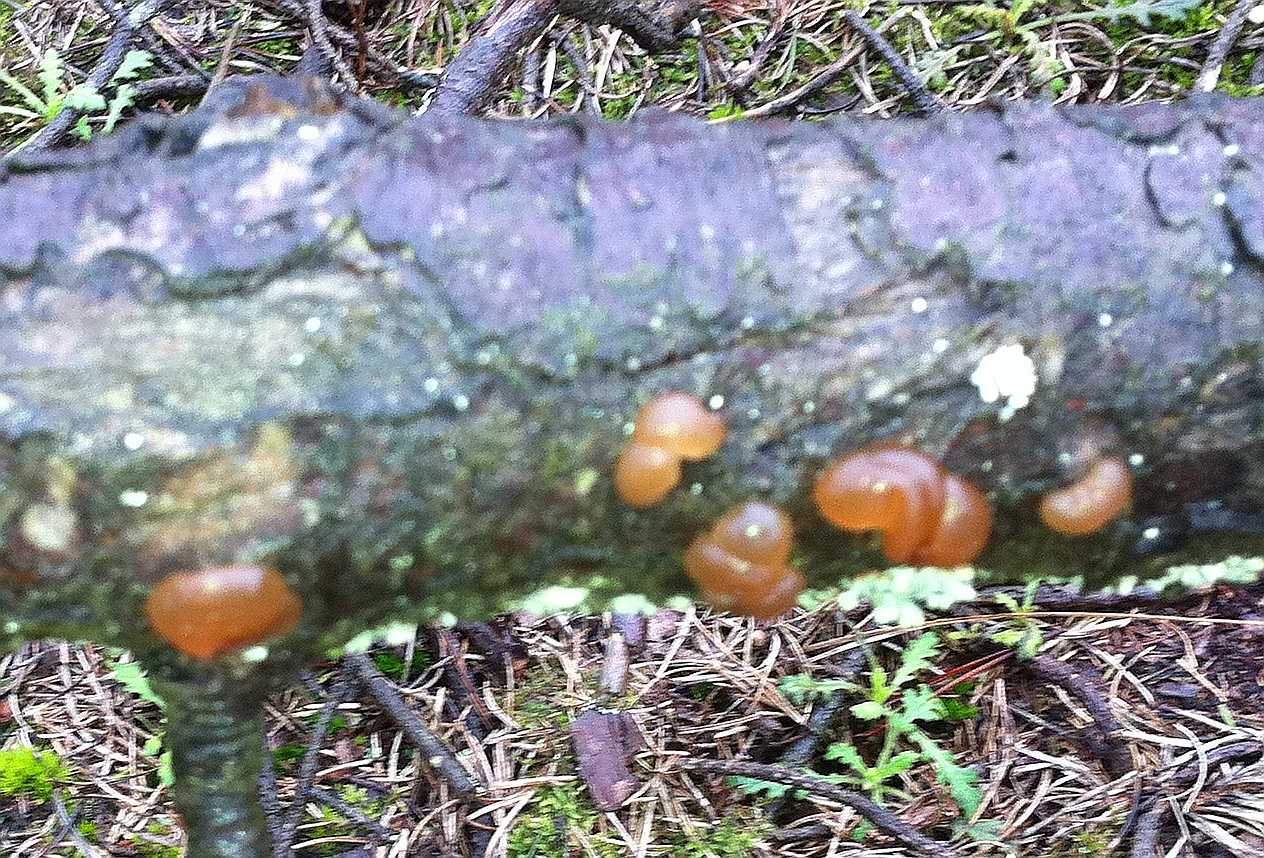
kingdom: Fungi
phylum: Basidiomycota
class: Agaricomycetes
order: Auriculariales
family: Auriculariaceae
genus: Exidia
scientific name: Exidia saccharina
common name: kandis-bævretop
